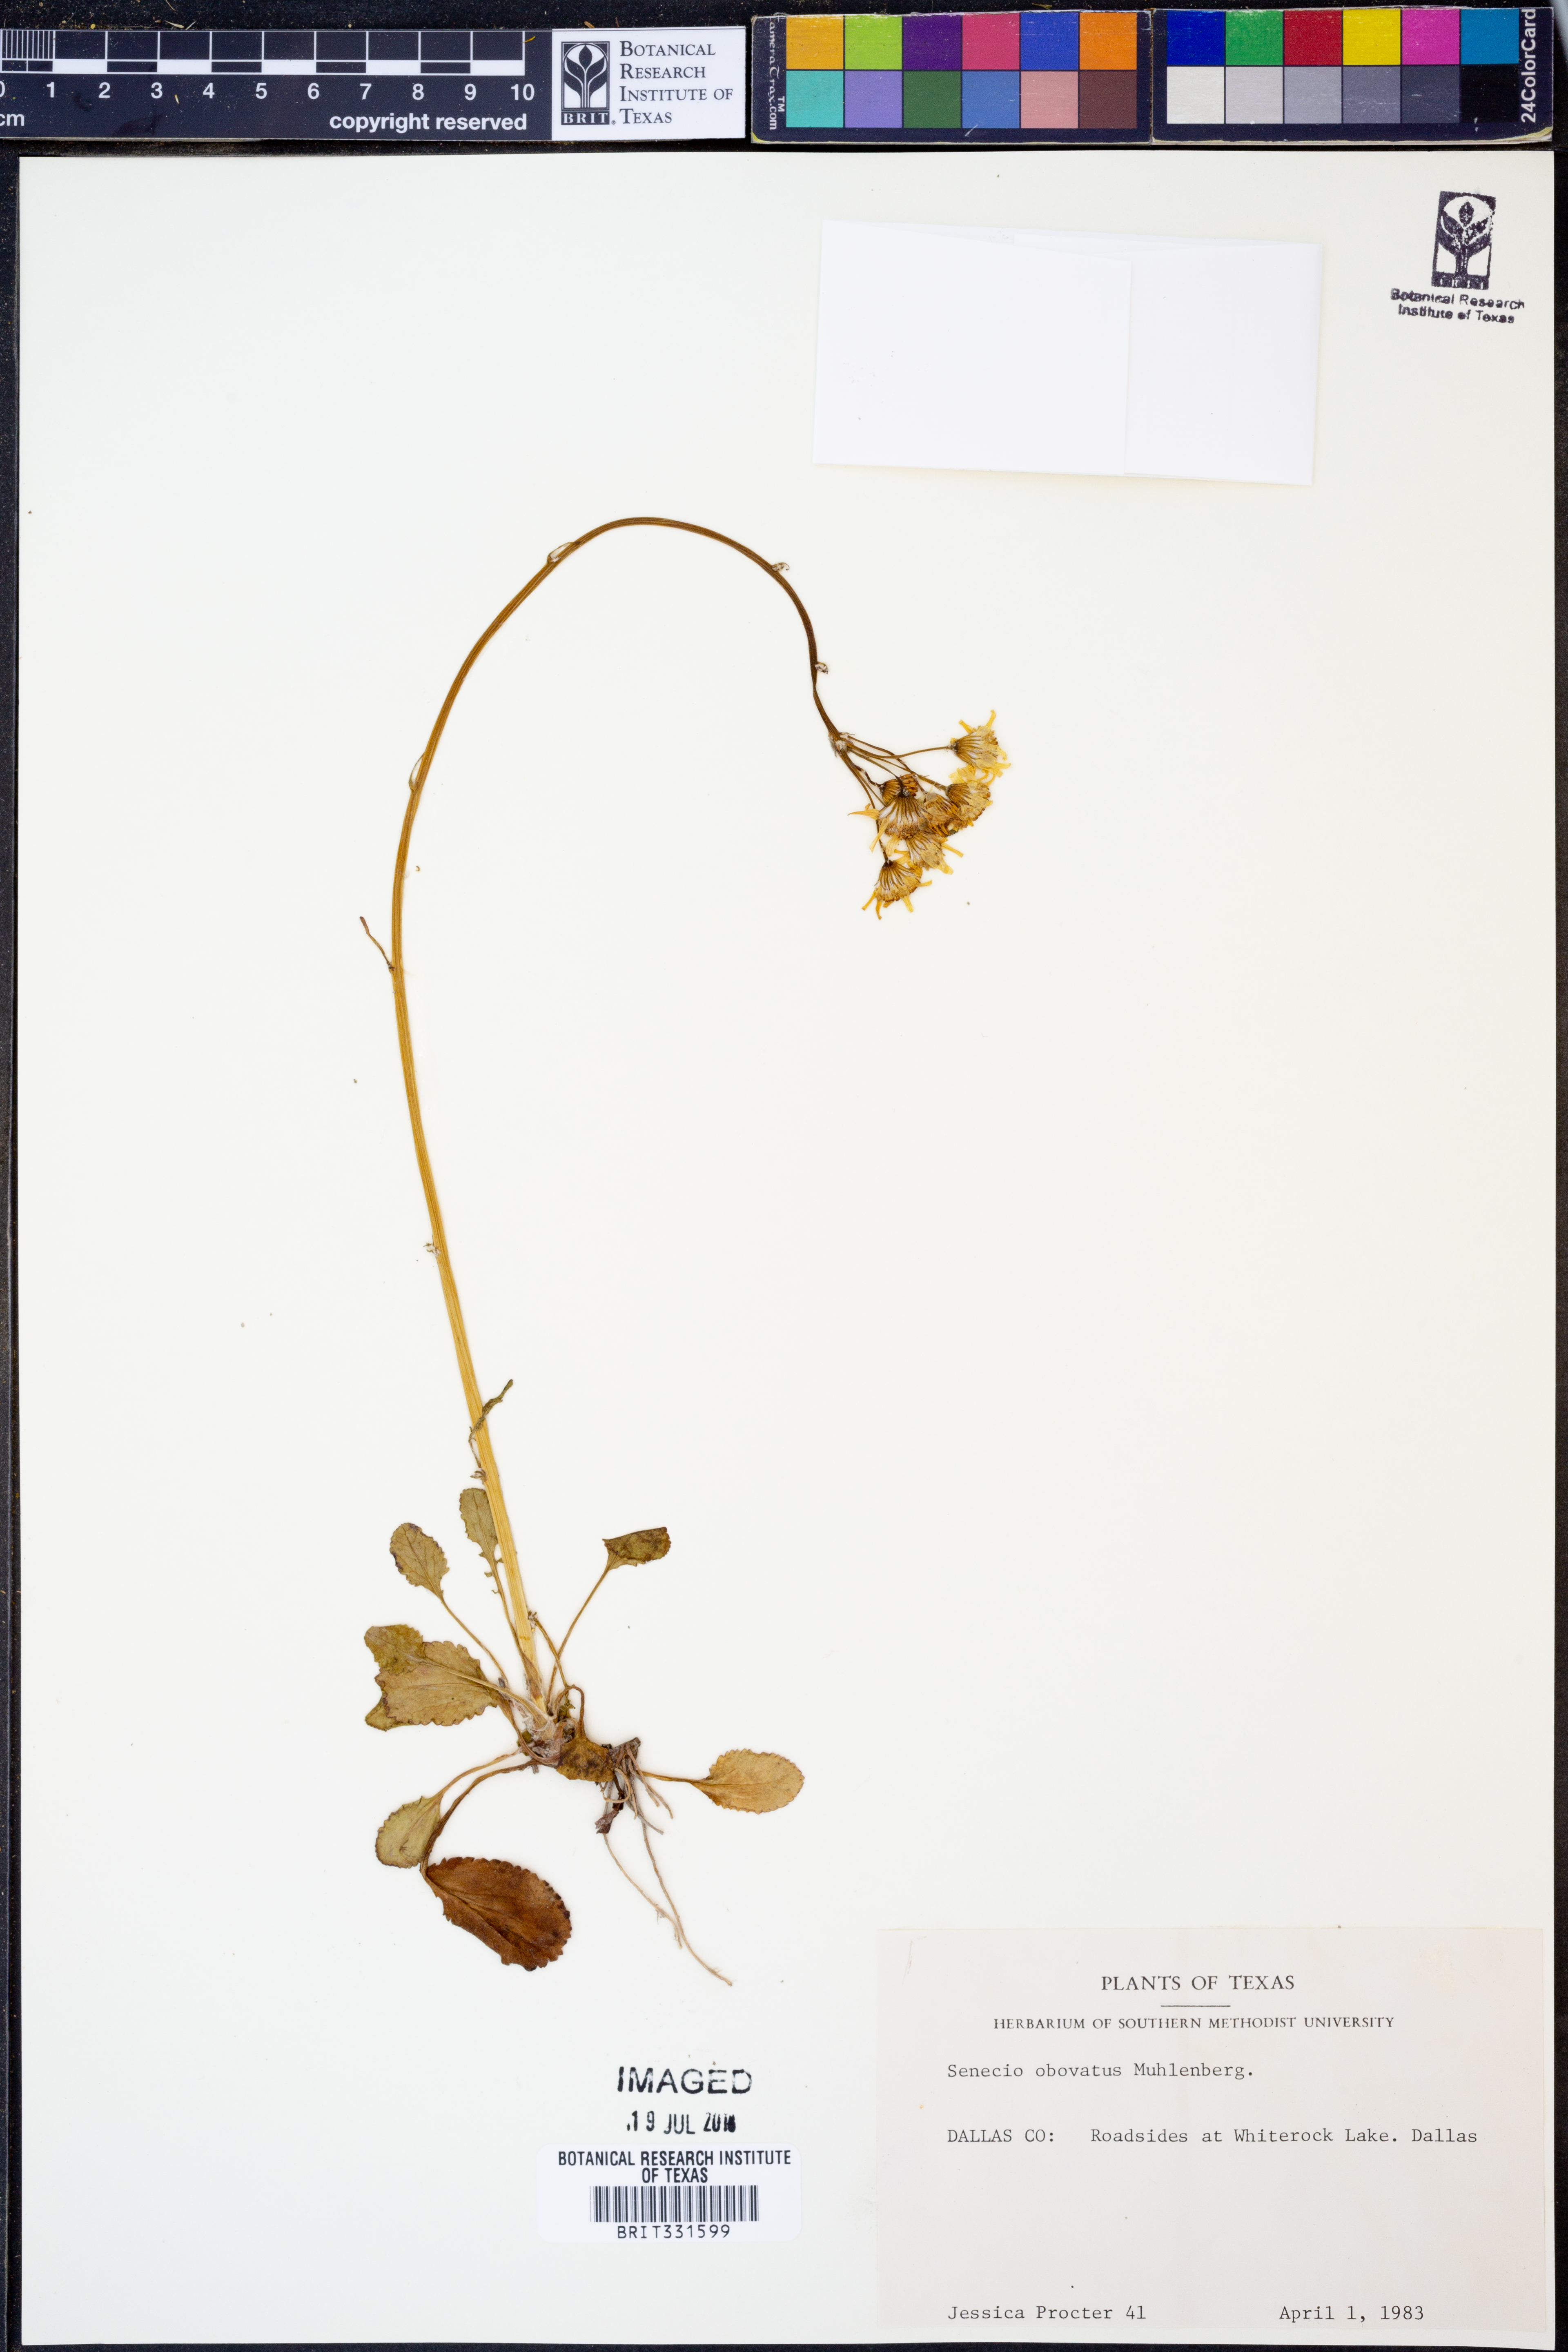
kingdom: Plantae
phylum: Tracheophyta
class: Magnoliopsida
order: Asterales
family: Asteraceae
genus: Senecio
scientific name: Senecio provincialis
